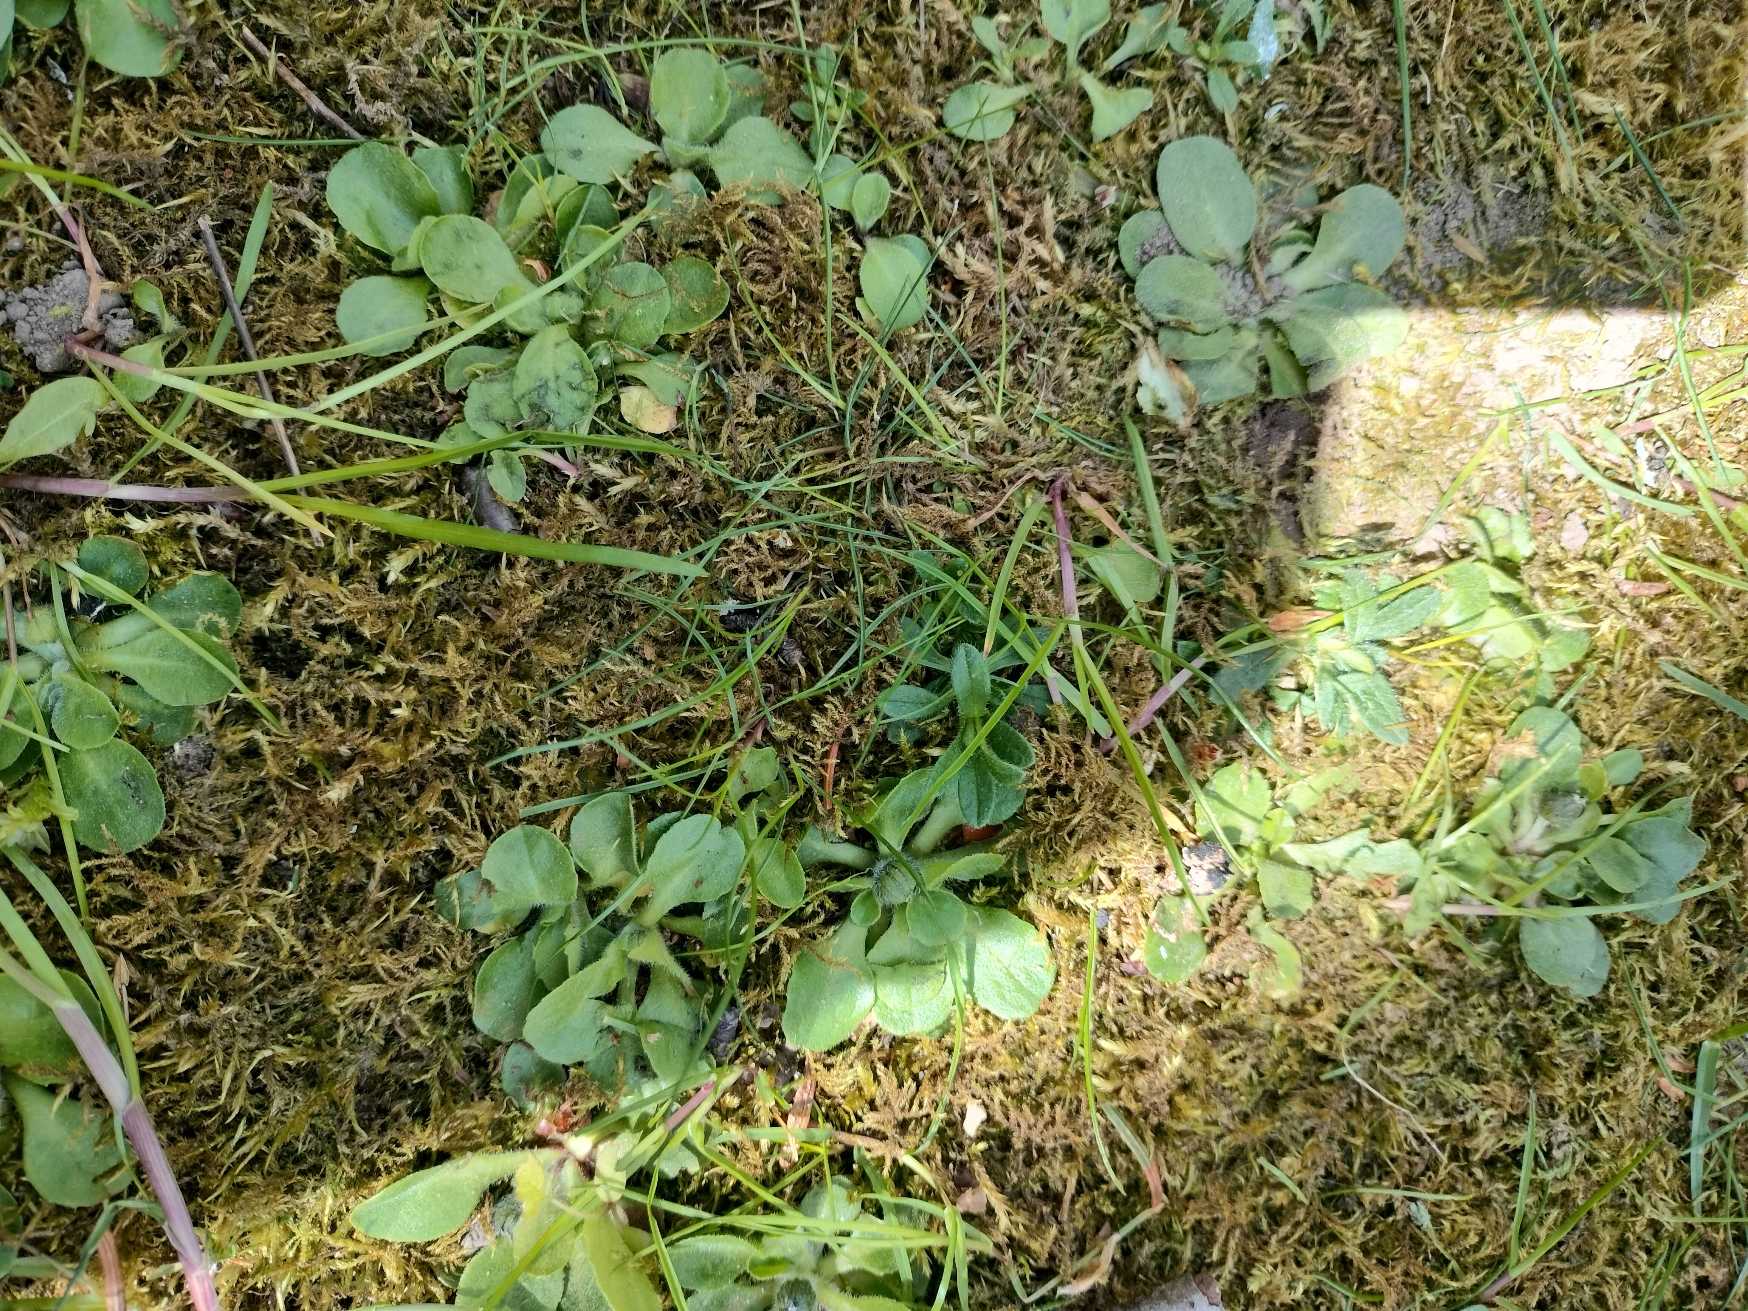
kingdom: Plantae
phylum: Tracheophyta
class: Magnoliopsida
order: Asterales
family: Asteraceae
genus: Bellis
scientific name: Bellis perennis
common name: Tusindfryd
